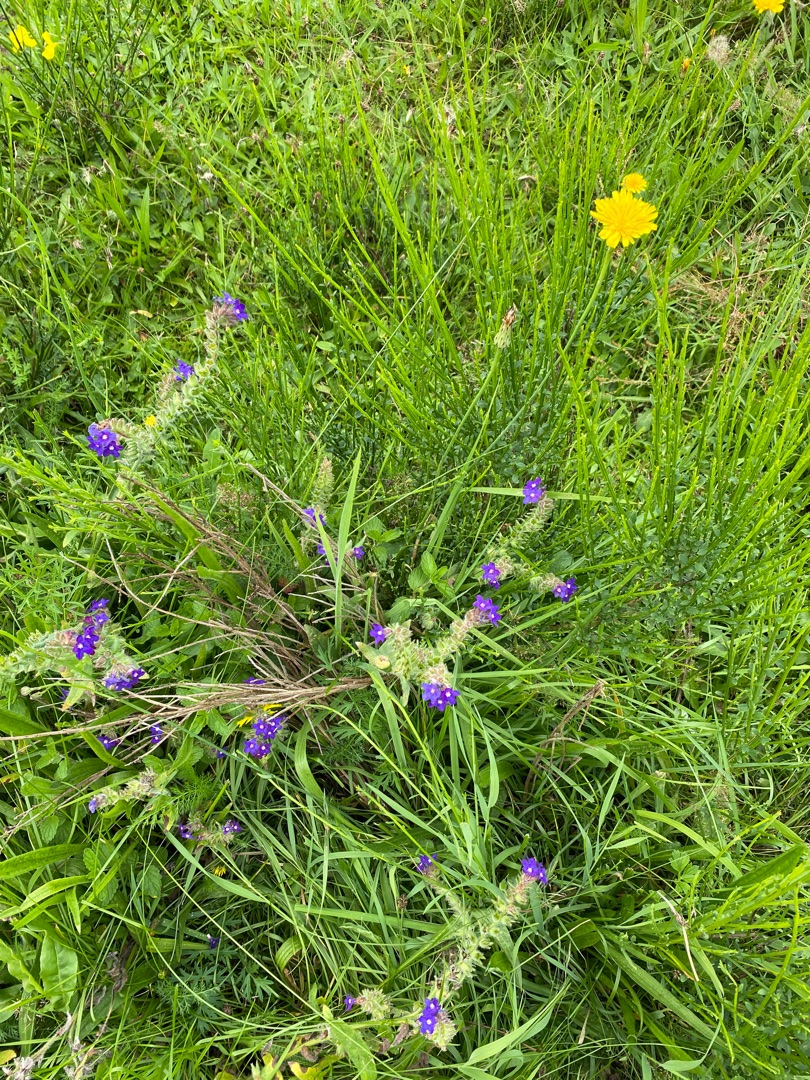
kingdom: Plantae
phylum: Tracheophyta
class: Magnoliopsida
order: Boraginales
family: Boraginaceae
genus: Anchusa
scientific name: Anchusa officinalis
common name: Læge-oksetunge
